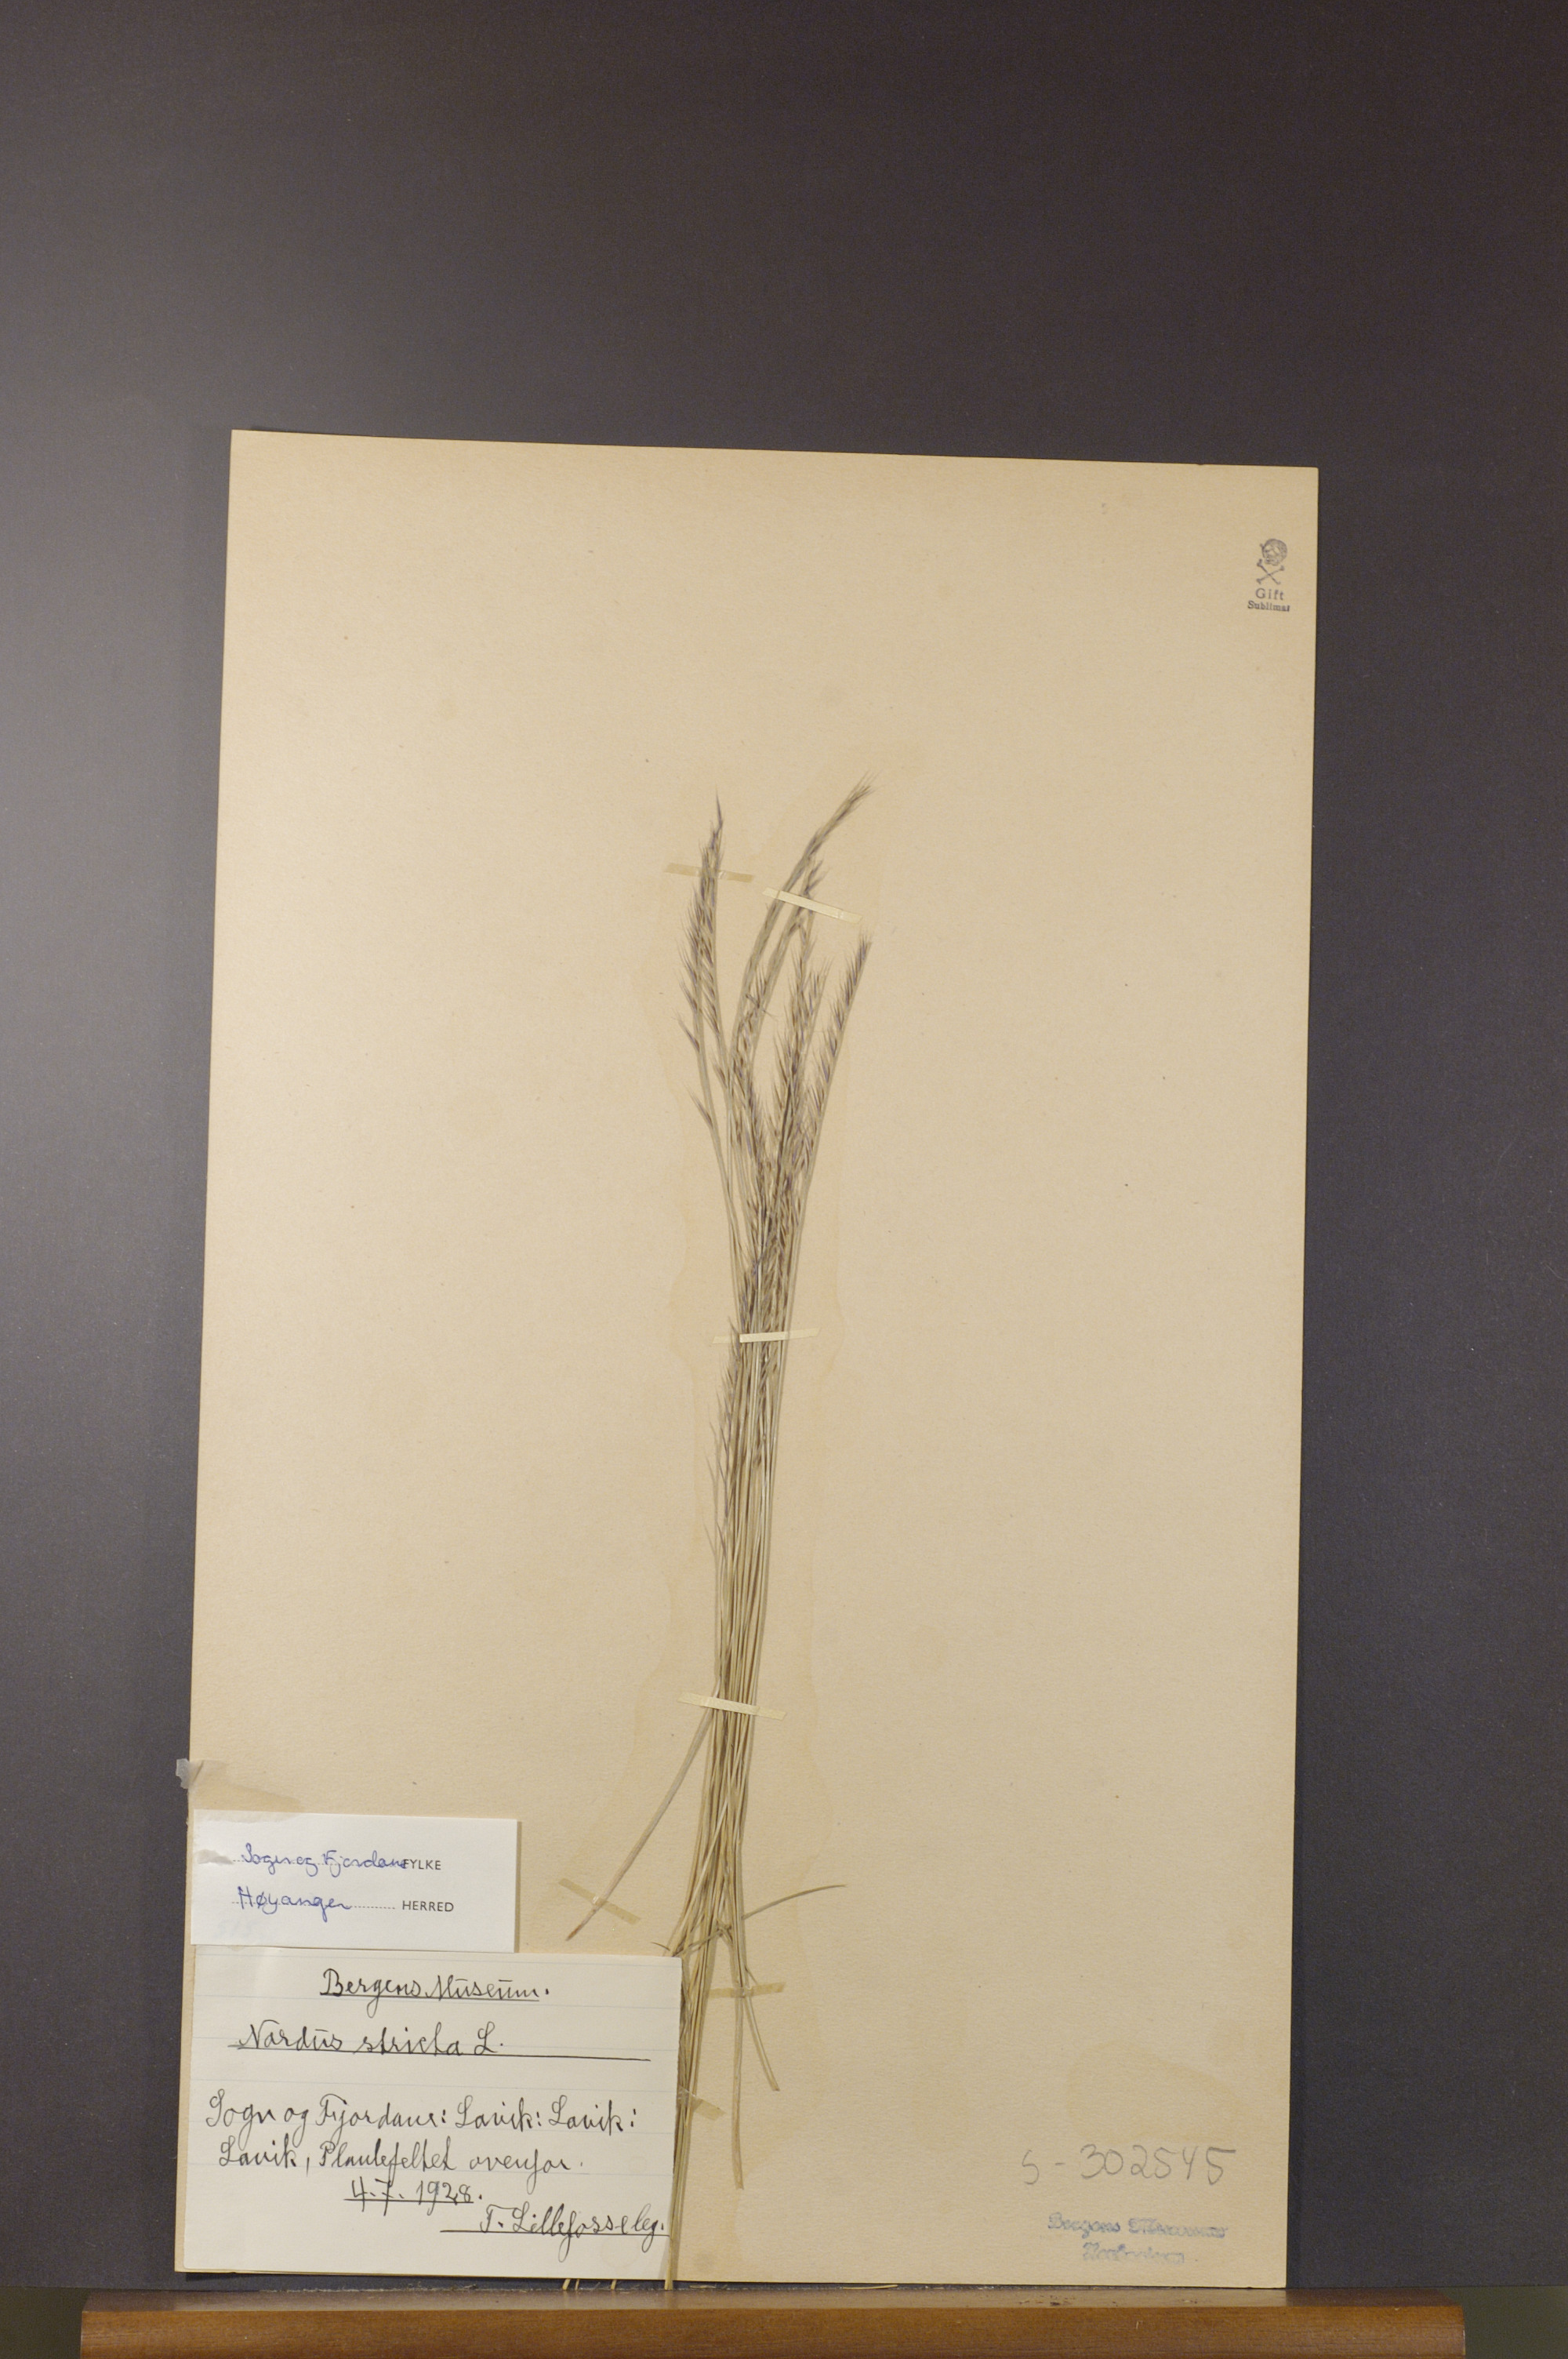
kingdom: Plantae
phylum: Tracheophyta
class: Liliopsida
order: Poales
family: Poaceae
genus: Nardus
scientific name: Nardus stricta
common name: Mat-grass
